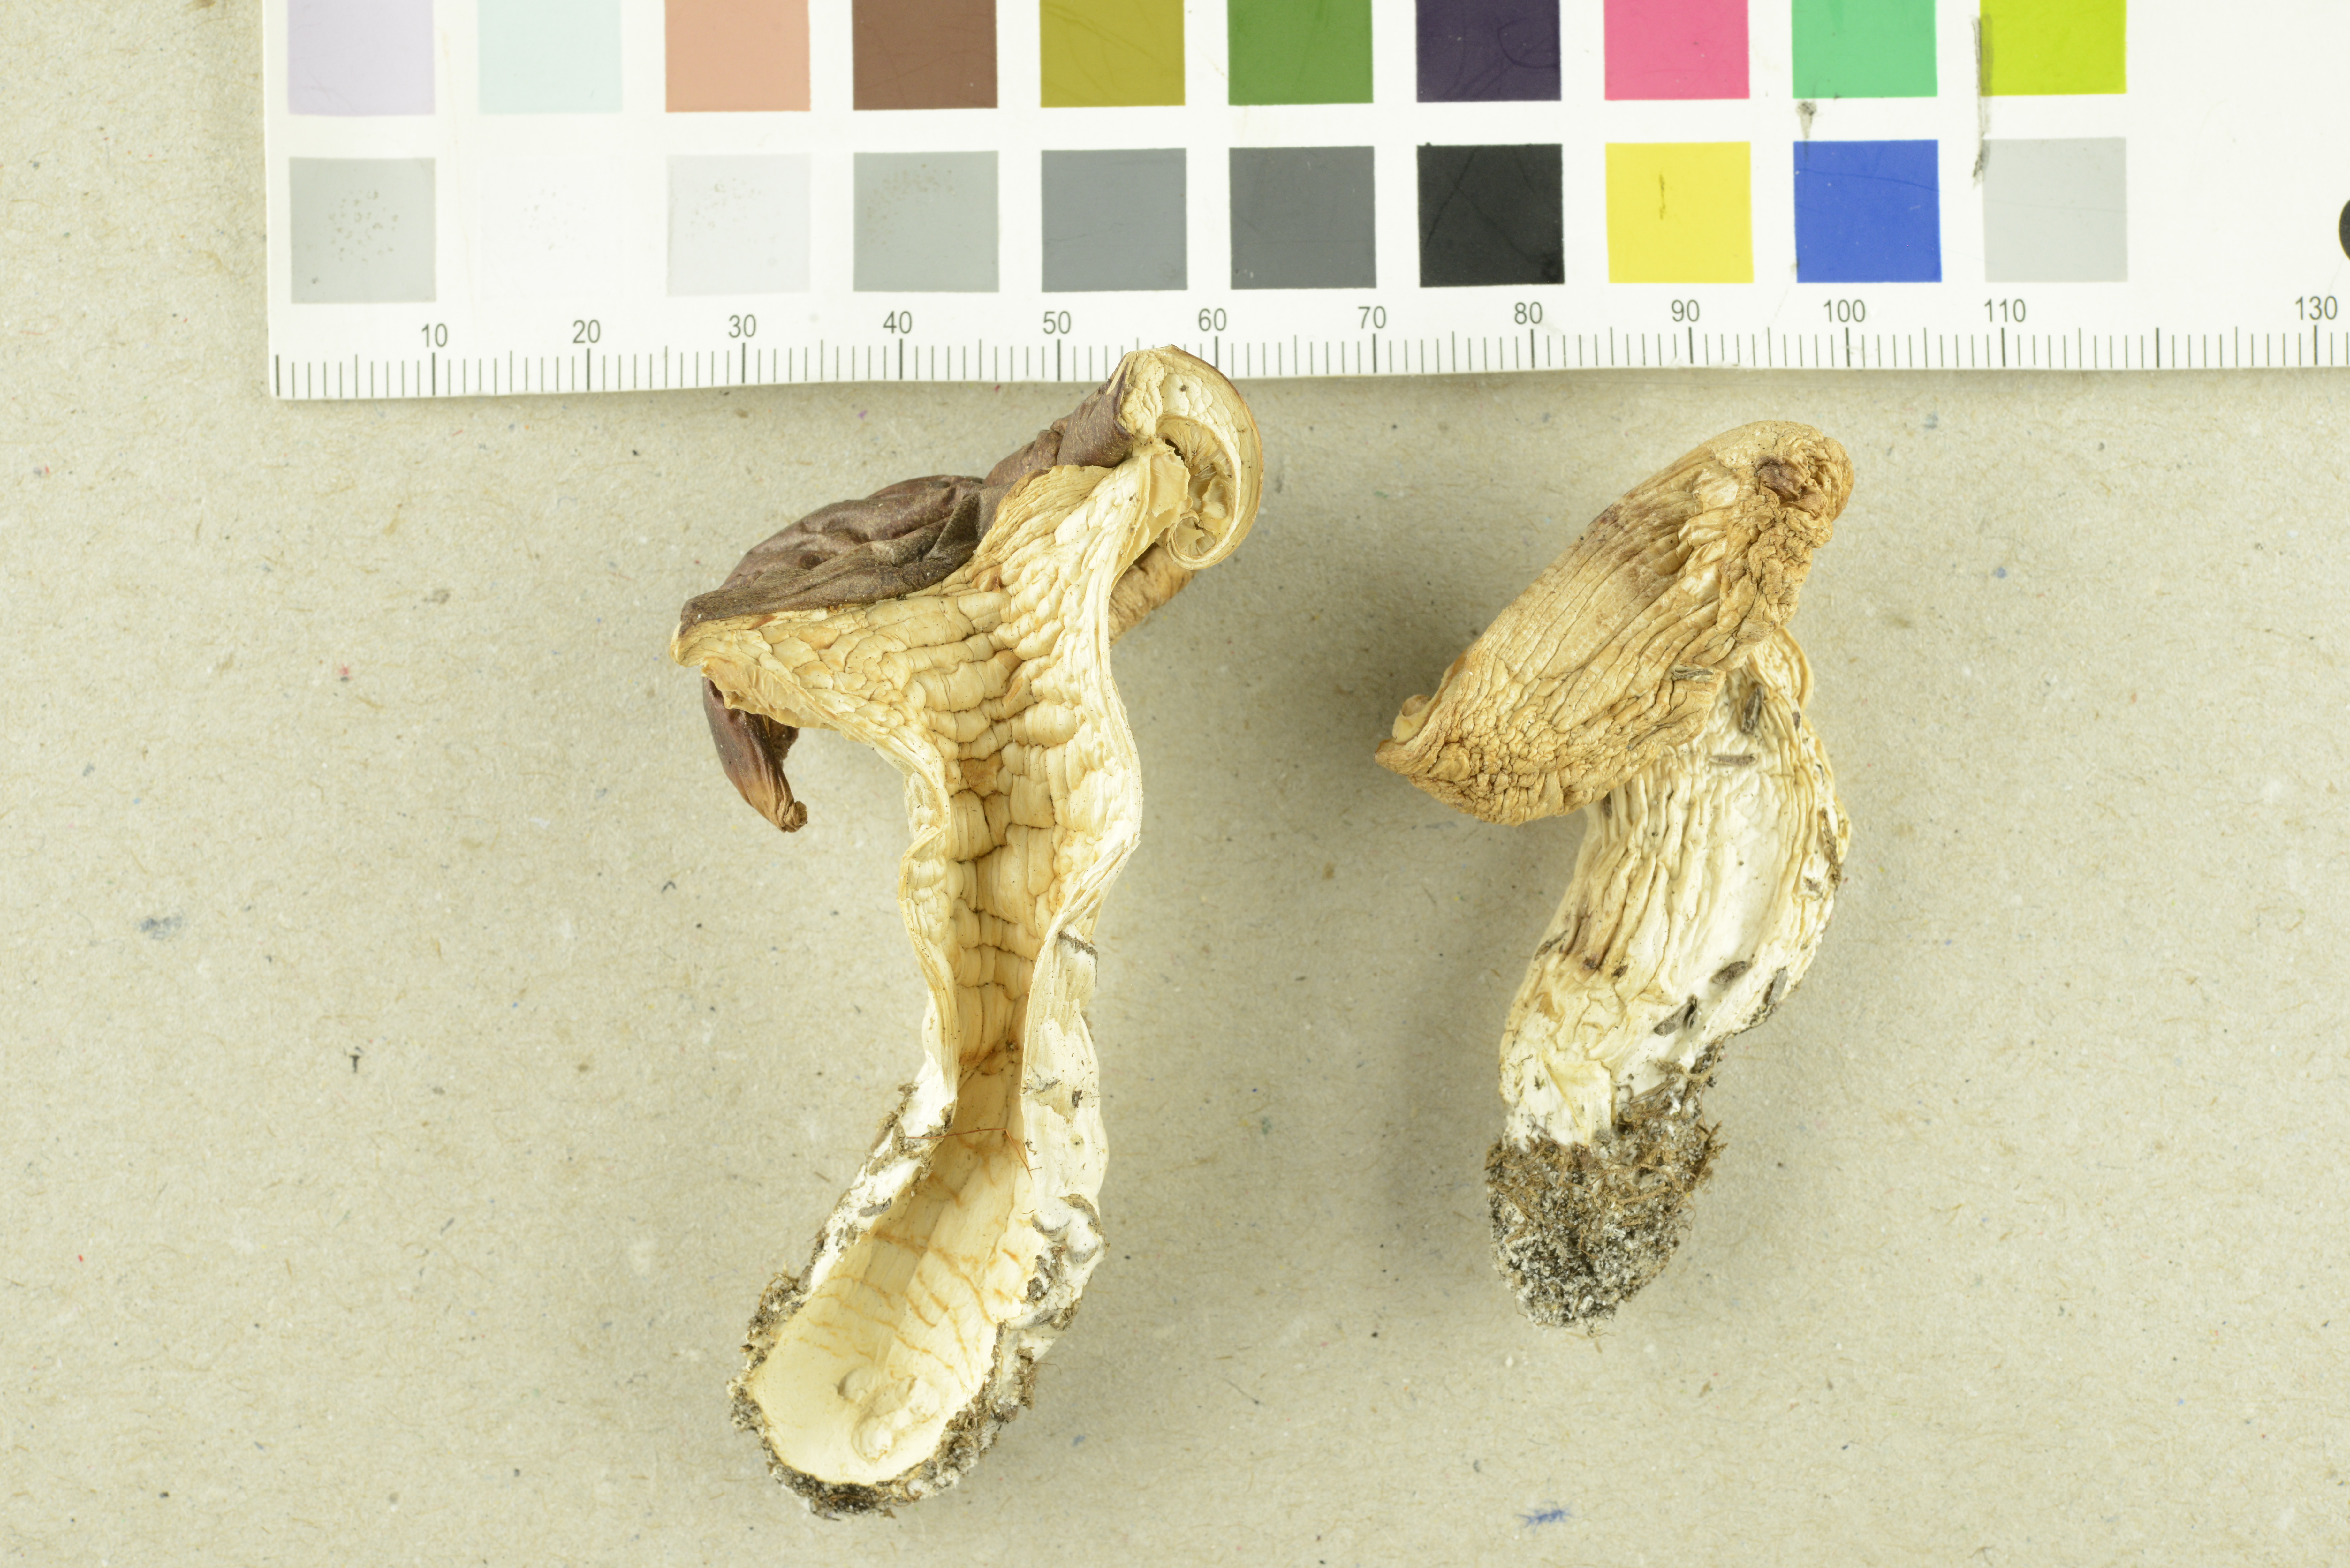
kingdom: Fungi
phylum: Basidiomycota
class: Agaricomycetes
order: Agaricales
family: Entolomataceae
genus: Clitopilus
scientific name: Clitopilus geminus
